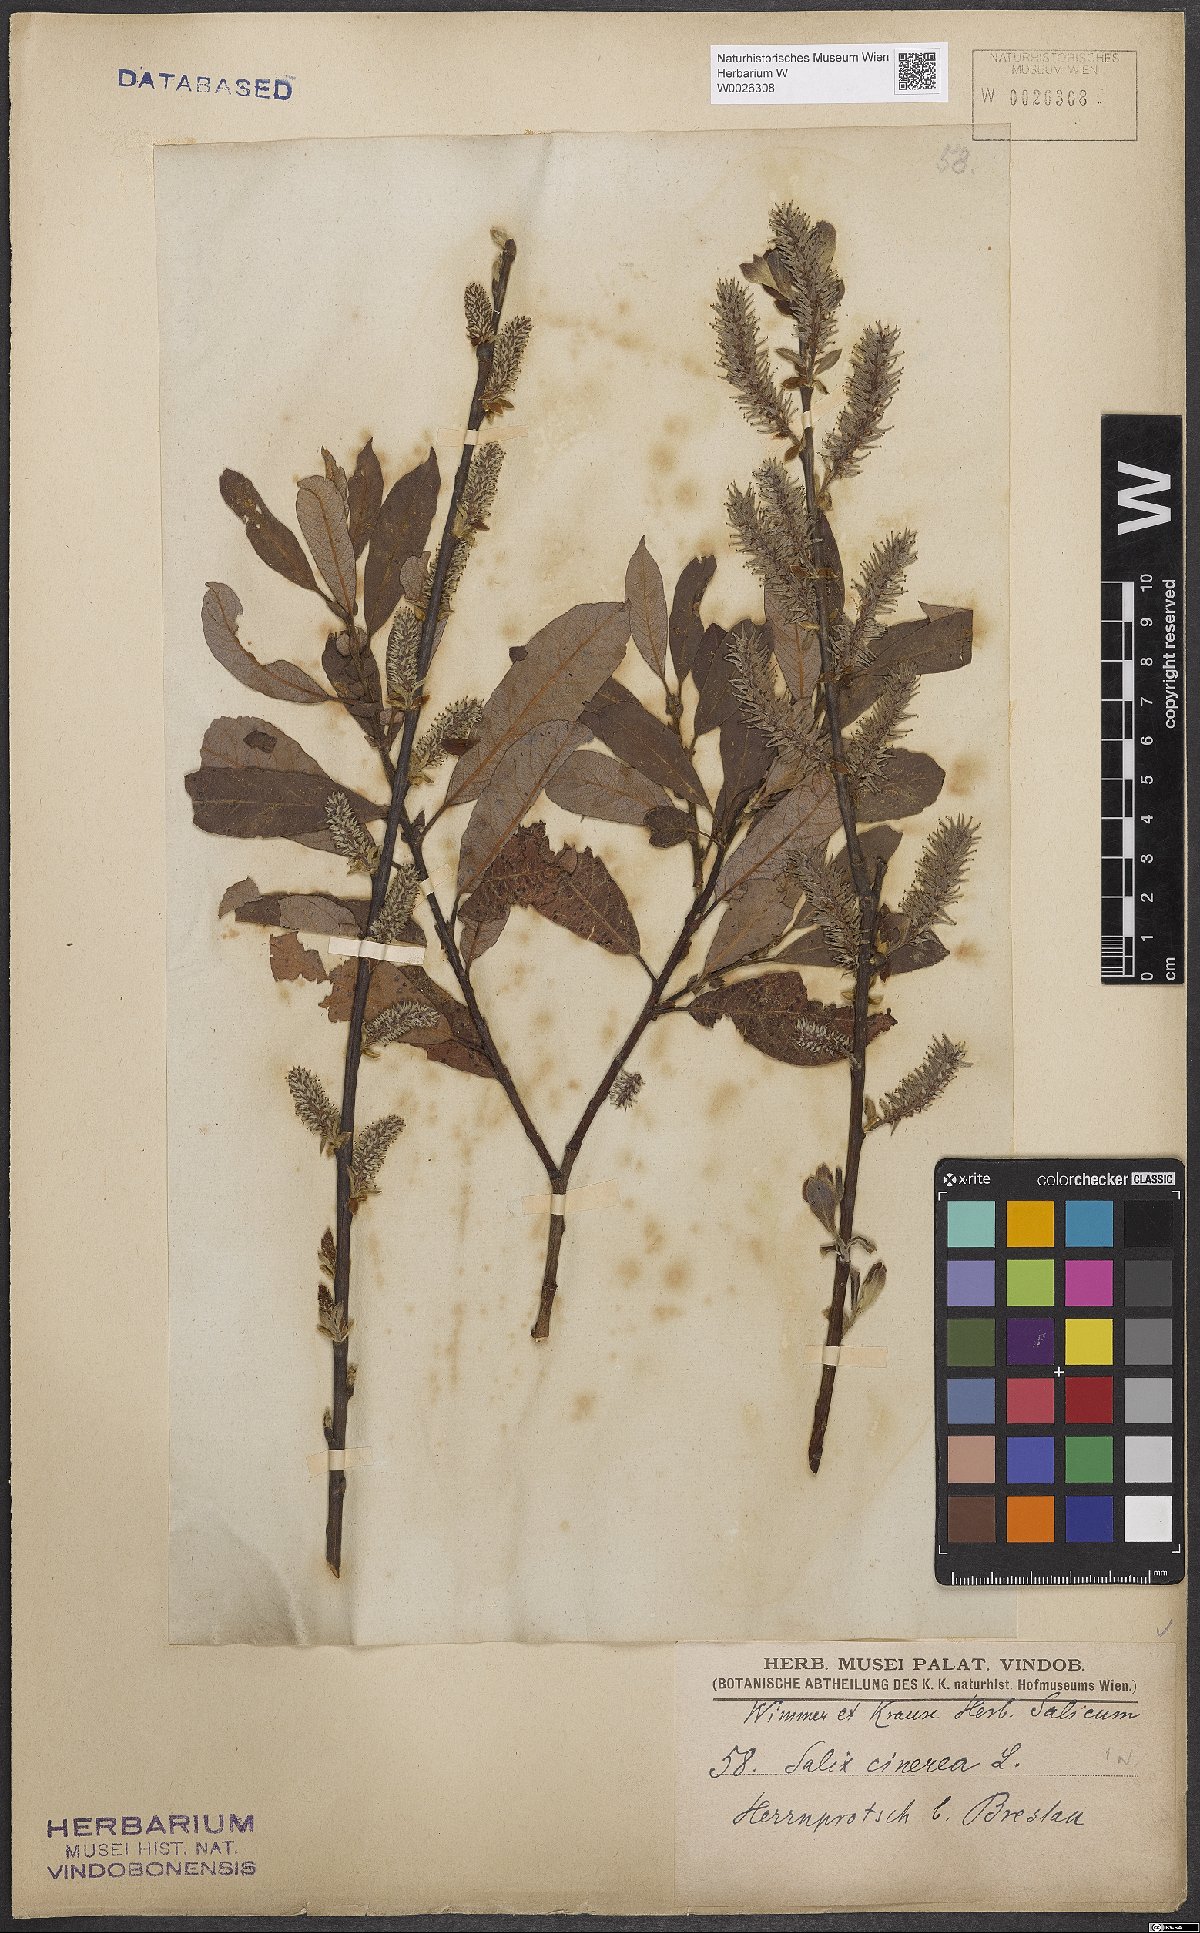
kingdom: Plantae
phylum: Tracheophyta
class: Magnoliopsida
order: Malpighiales
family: Salicaceae
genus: Salix
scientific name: Salix cinerea
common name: Common sallow
